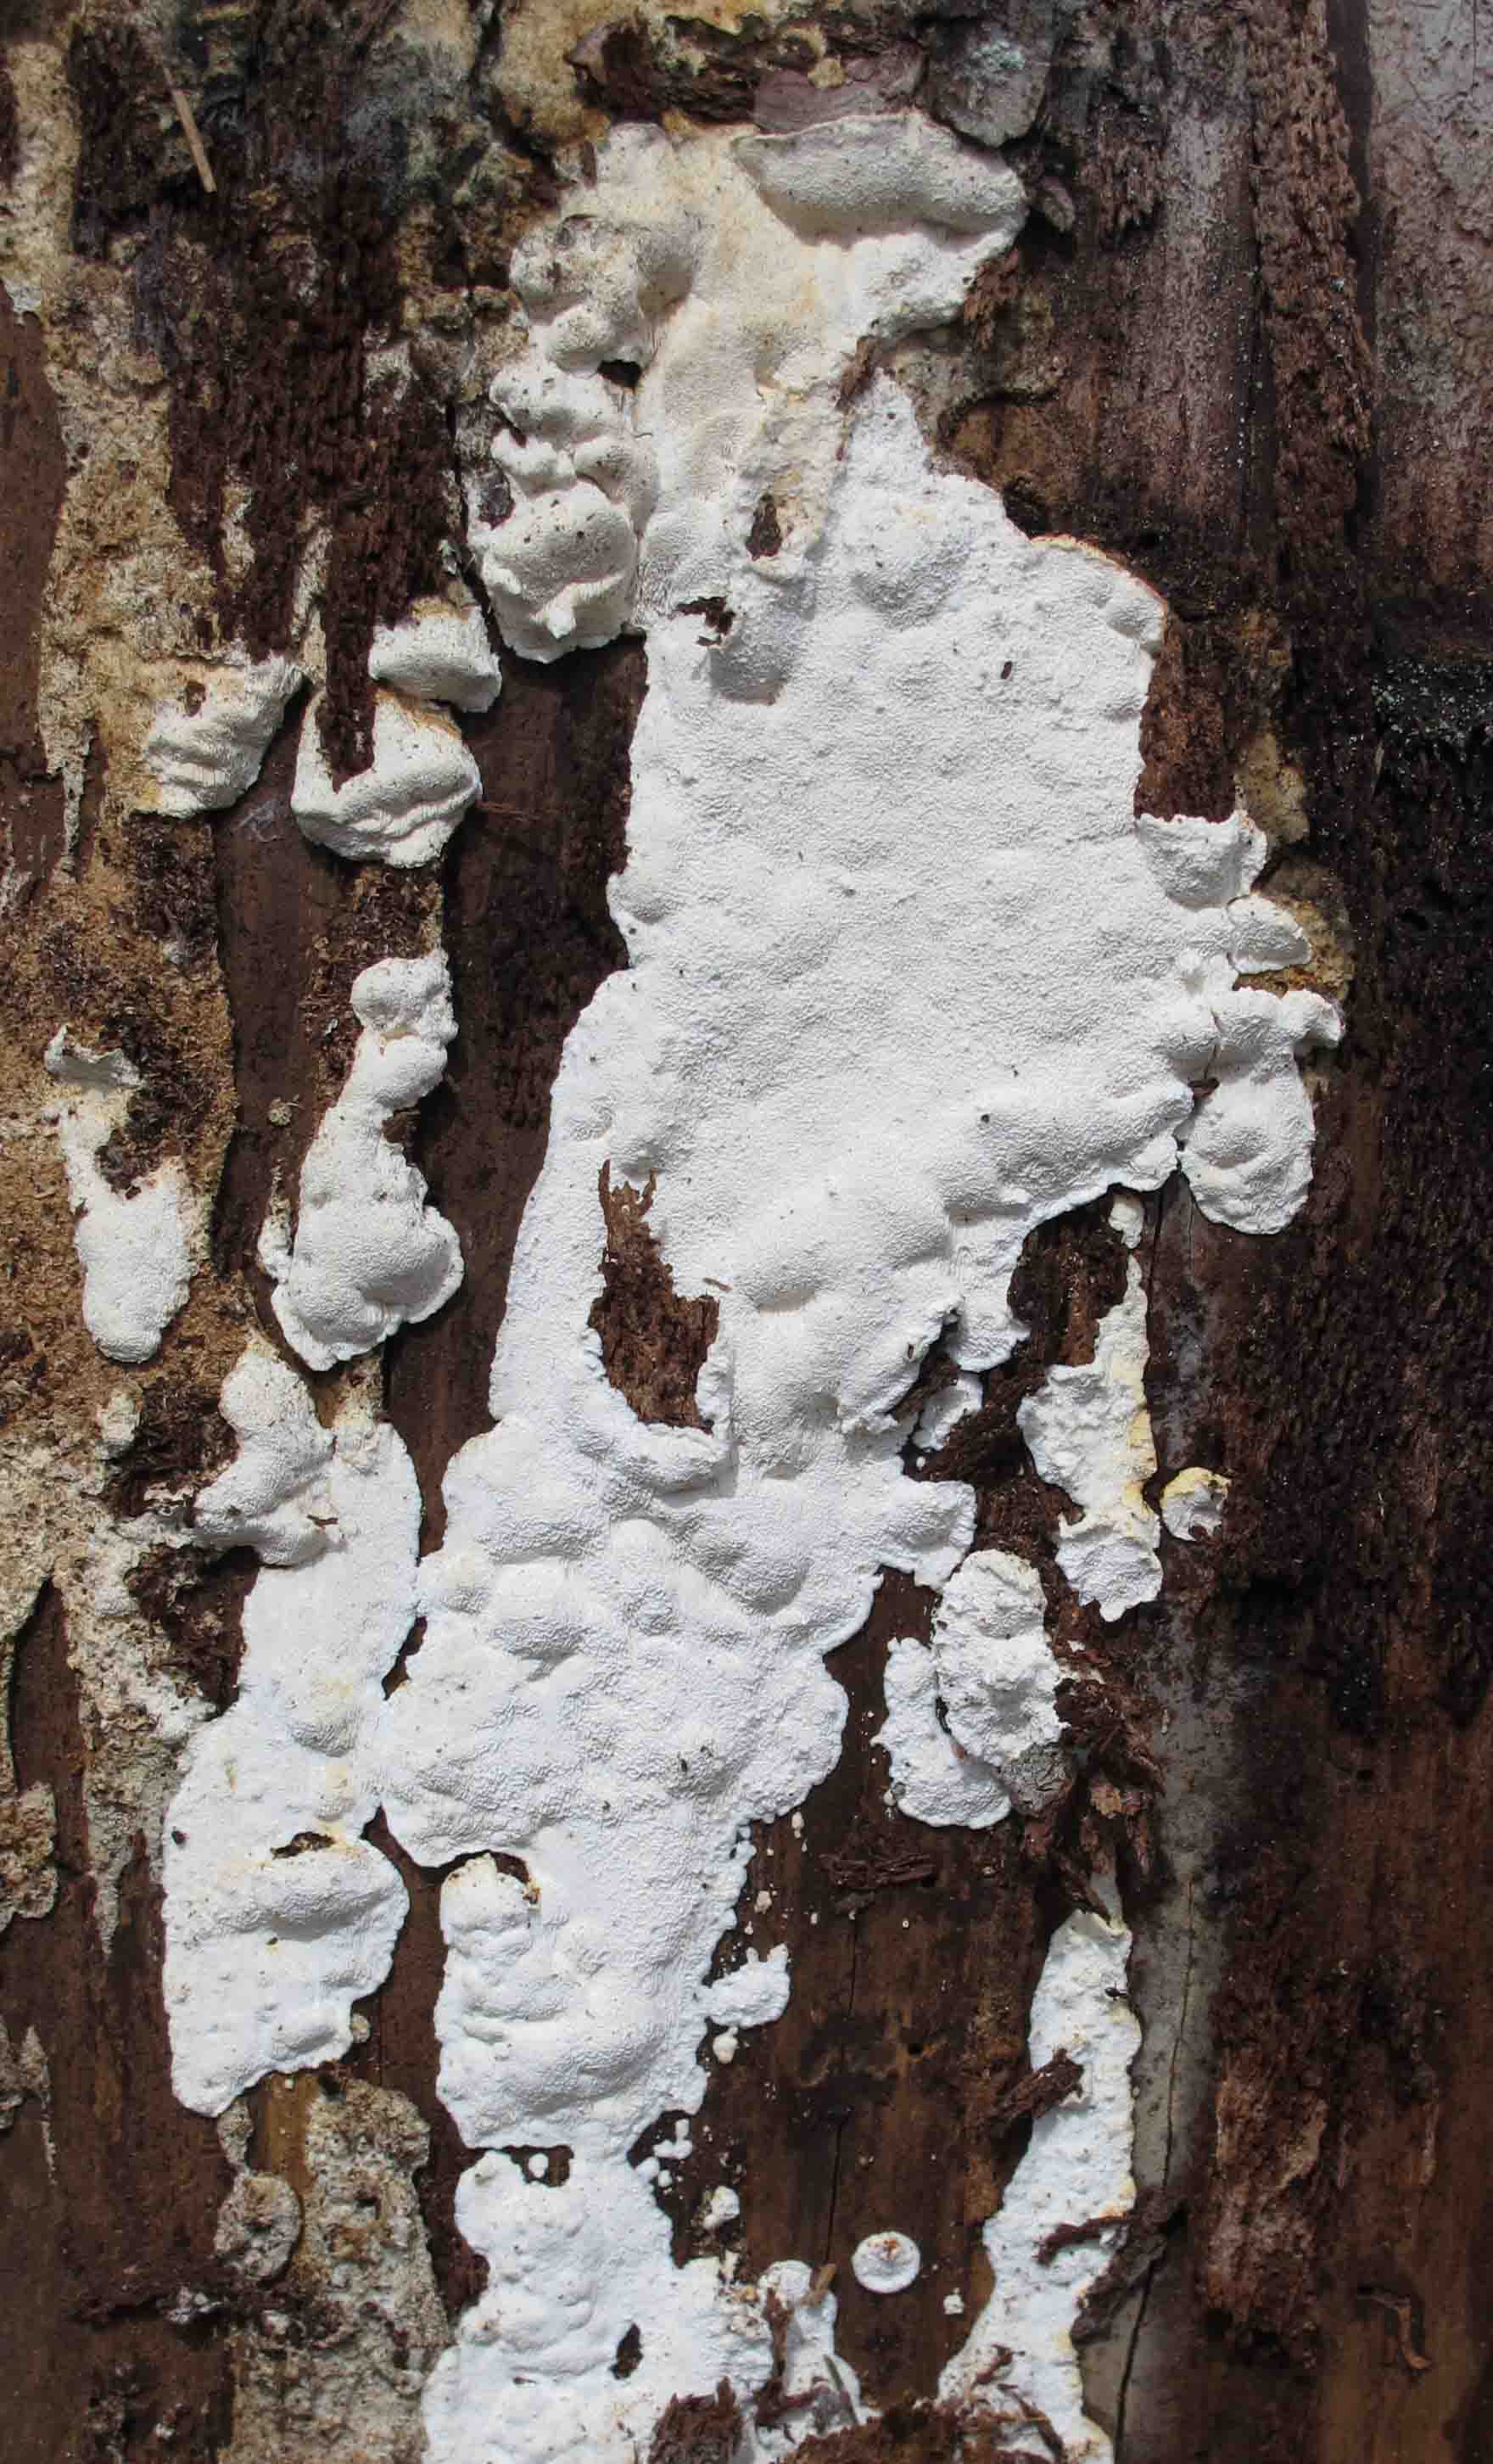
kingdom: Fungi
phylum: Basidiomycota
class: Agaricomycetes
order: Polyporales
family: Fomitopsidaceae
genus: Neoantrodia
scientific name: Neoantrodia serialis
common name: række-sejporesvamp
